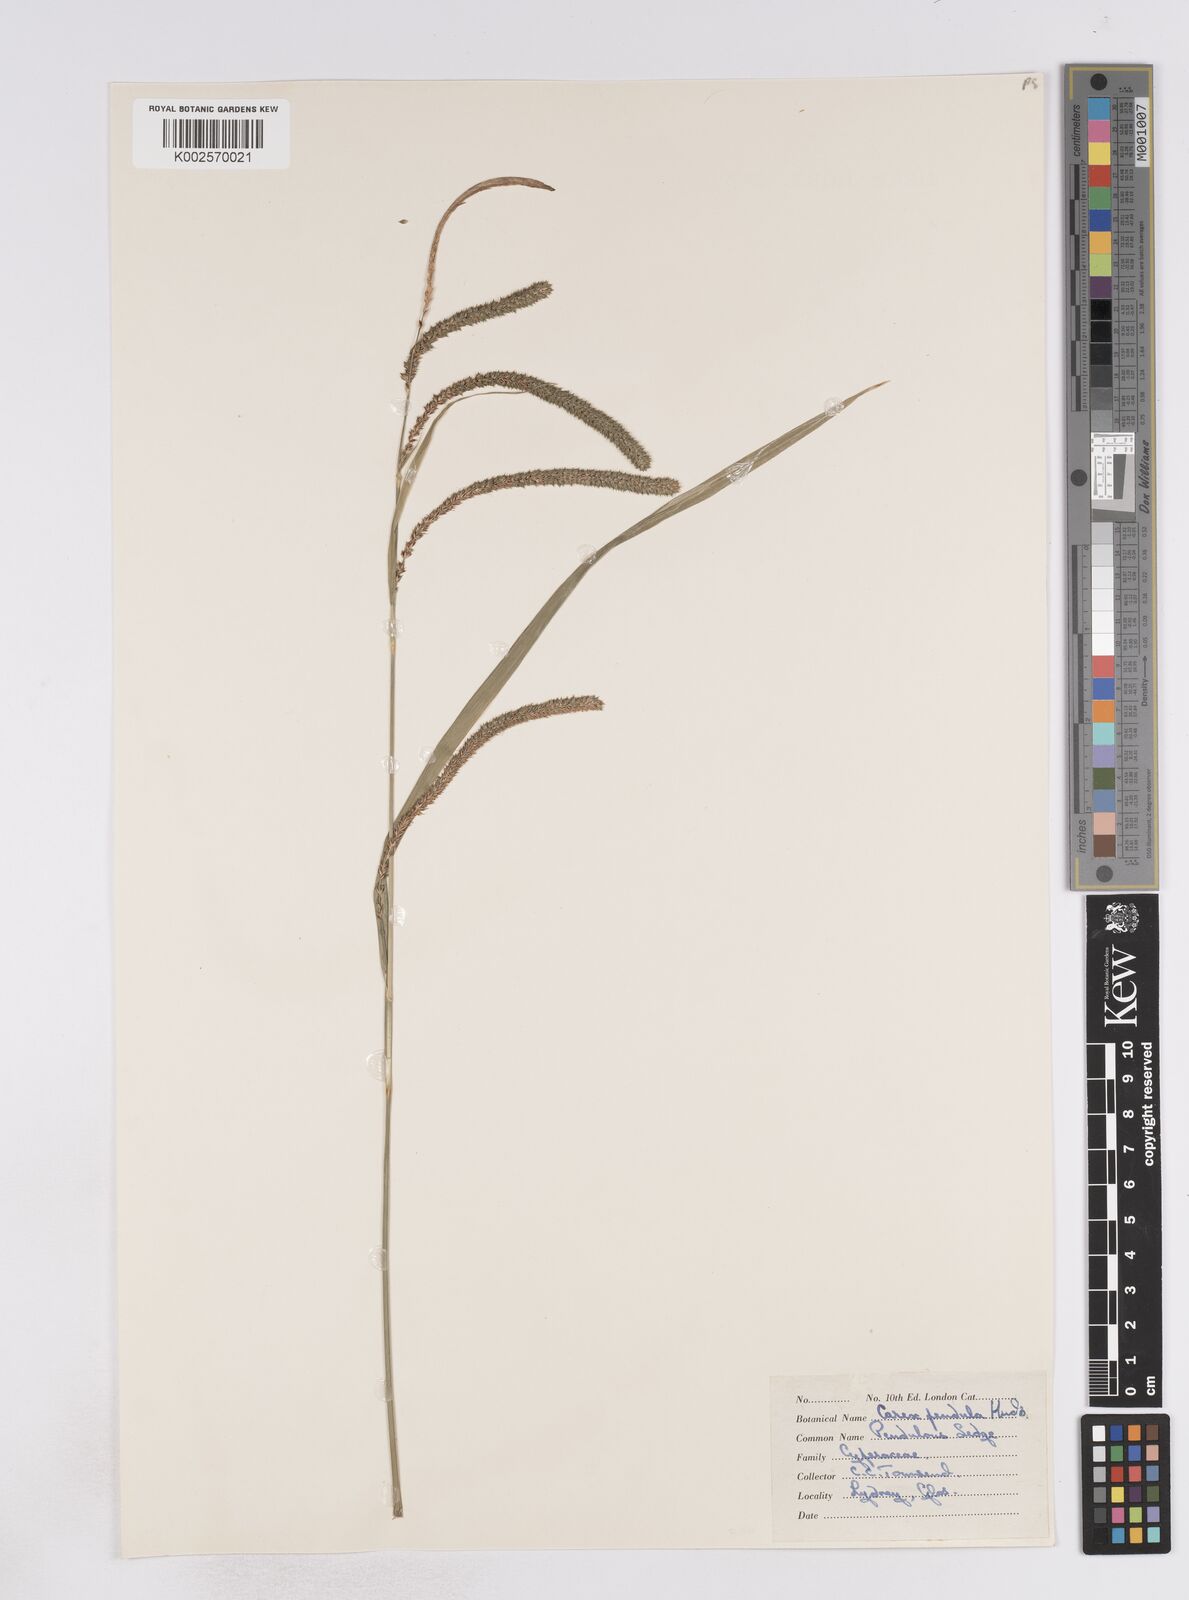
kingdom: Plantae
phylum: Tracheophyta
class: Liliopsida
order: Poales
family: Cyperaceae
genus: Carex
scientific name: Carex pendula
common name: Pendulous sedge
